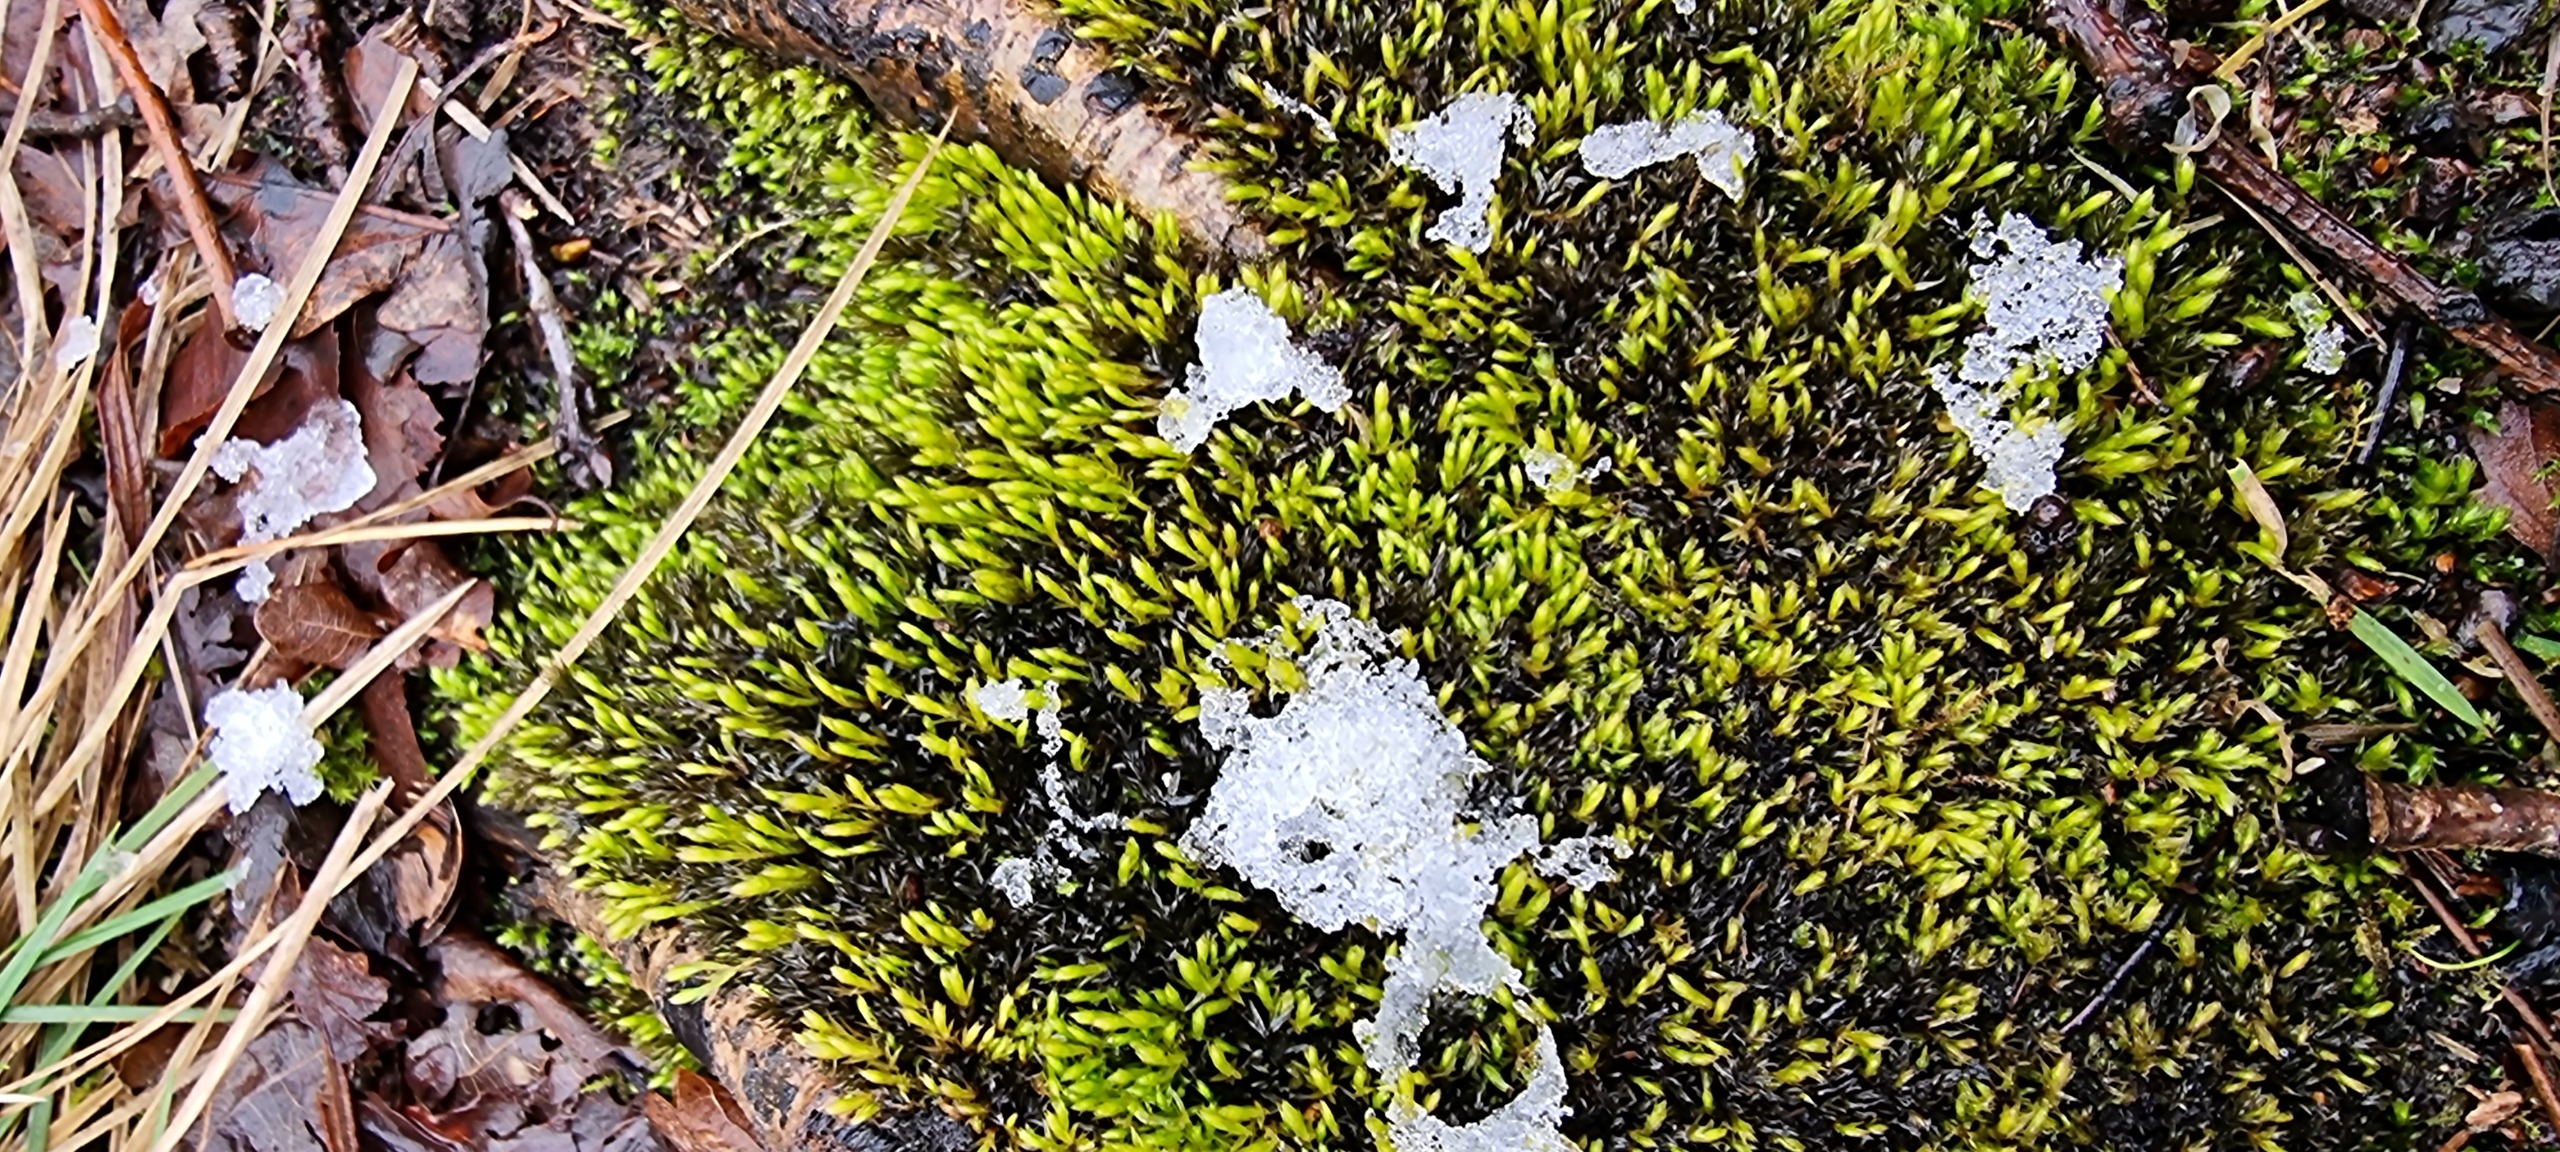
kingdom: Plantae
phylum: Bryophyta
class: Bryopsida
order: Bryales
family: Mniaceae
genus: Mnium
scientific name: Mnium hornum
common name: Brunfiltet stjernemos
